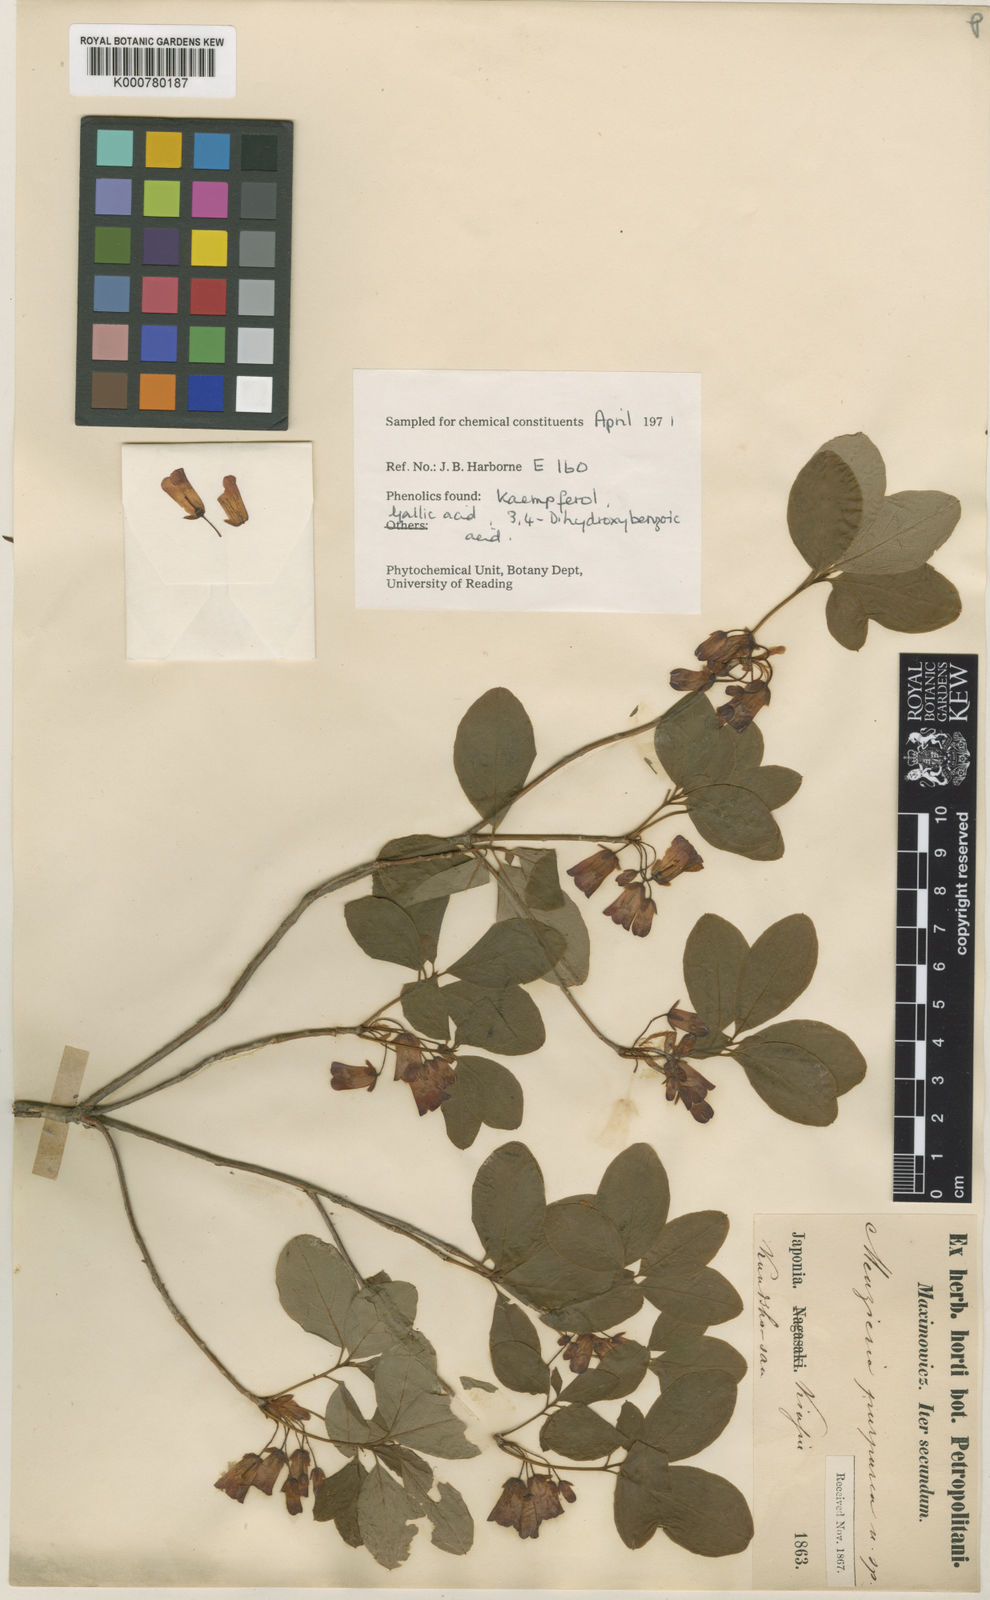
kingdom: Plantae
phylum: Tracheophyta
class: Magnoliopsida
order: Ericales
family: Ericaceae
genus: Rhododendron
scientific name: Rhododendron kroniae
